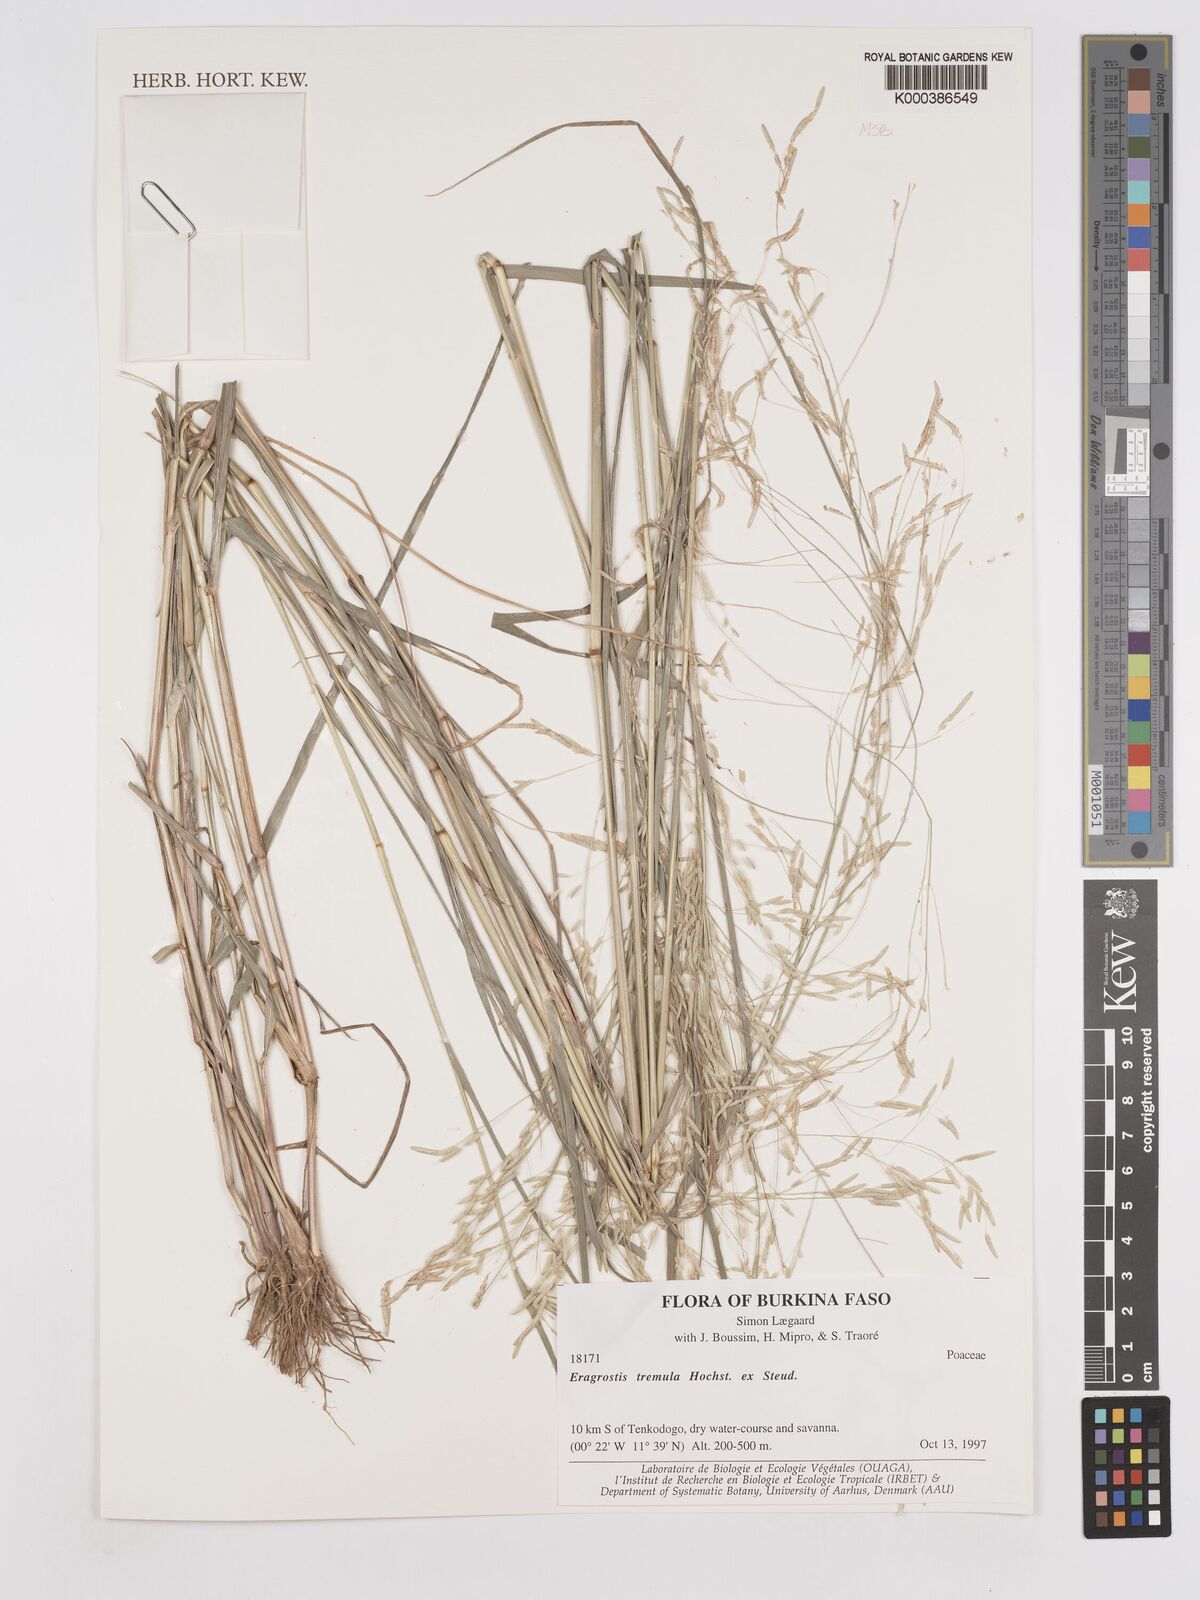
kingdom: Plantae
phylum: Tracheophyta
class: Liliopsida
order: Poales
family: Poaceae
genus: Eragrostis
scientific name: Eragrostis tremula
